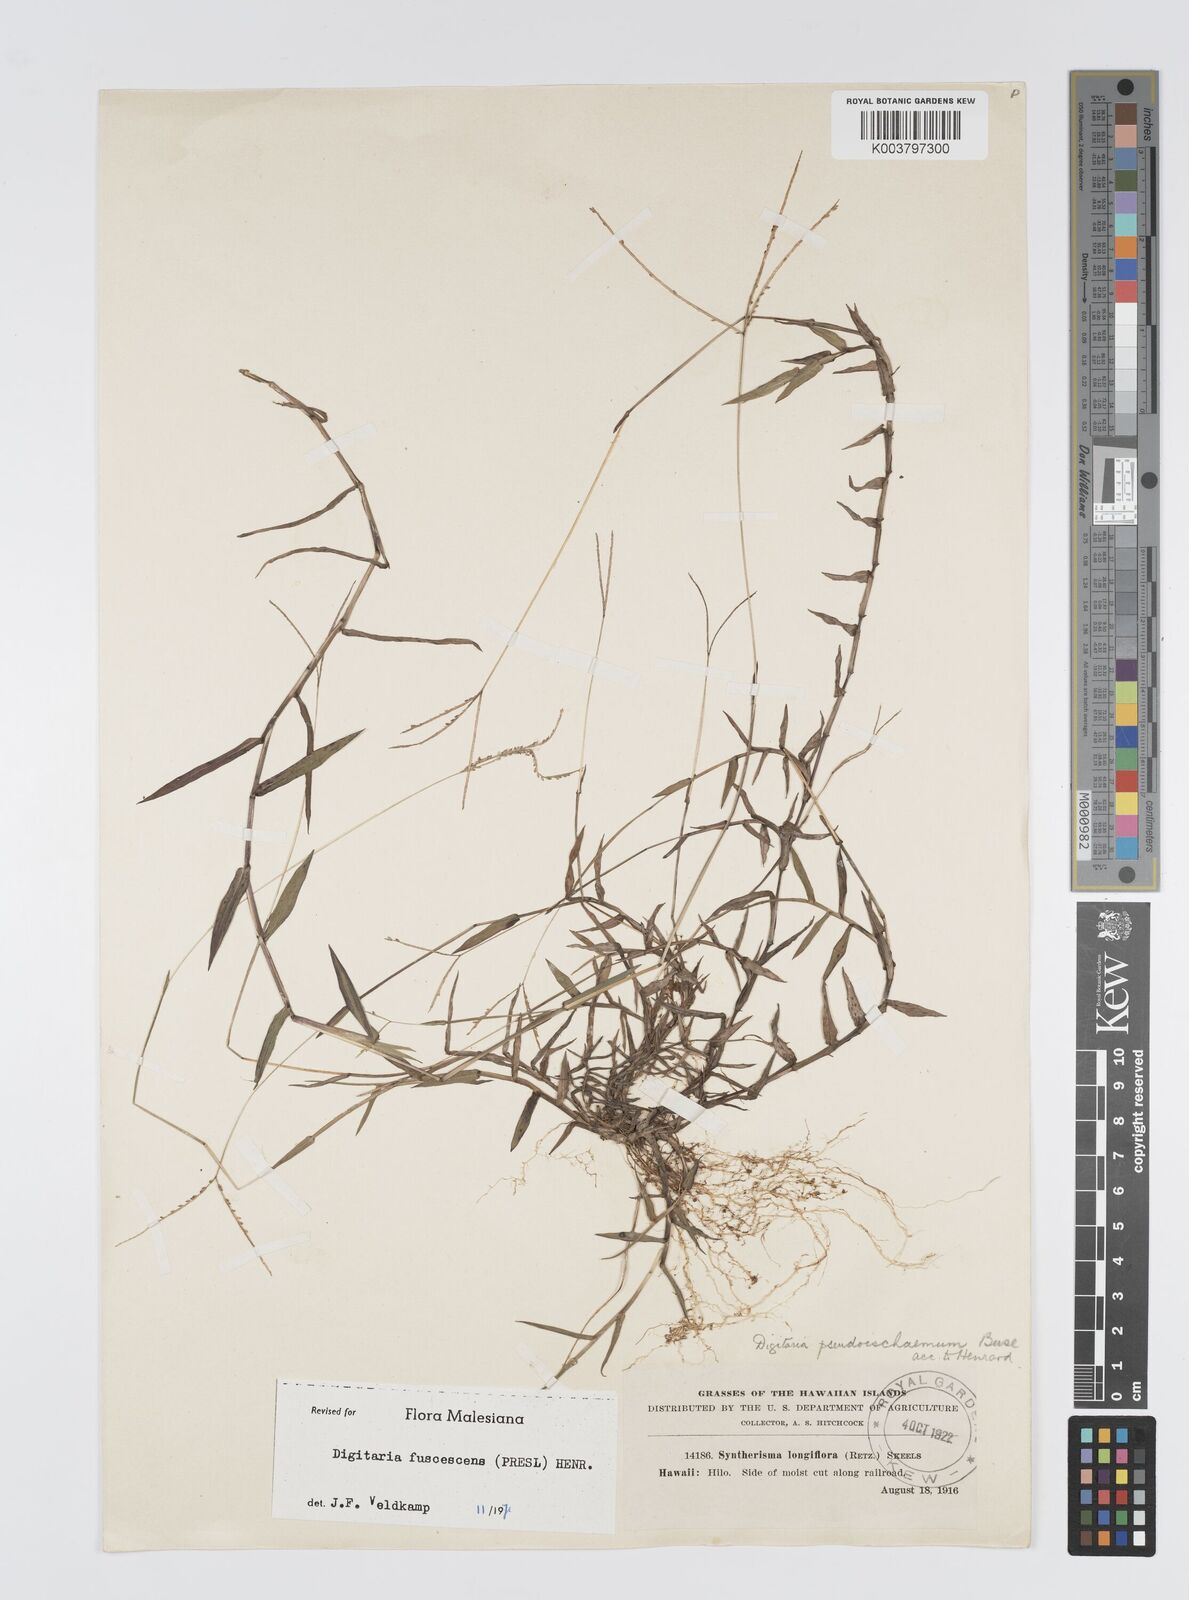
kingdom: Plantae
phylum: Tracheophyta
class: Liliopsida
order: Poales
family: Poaceae
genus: Digitaria
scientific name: Digitaria fuscescens
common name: Yellow crabgrass
